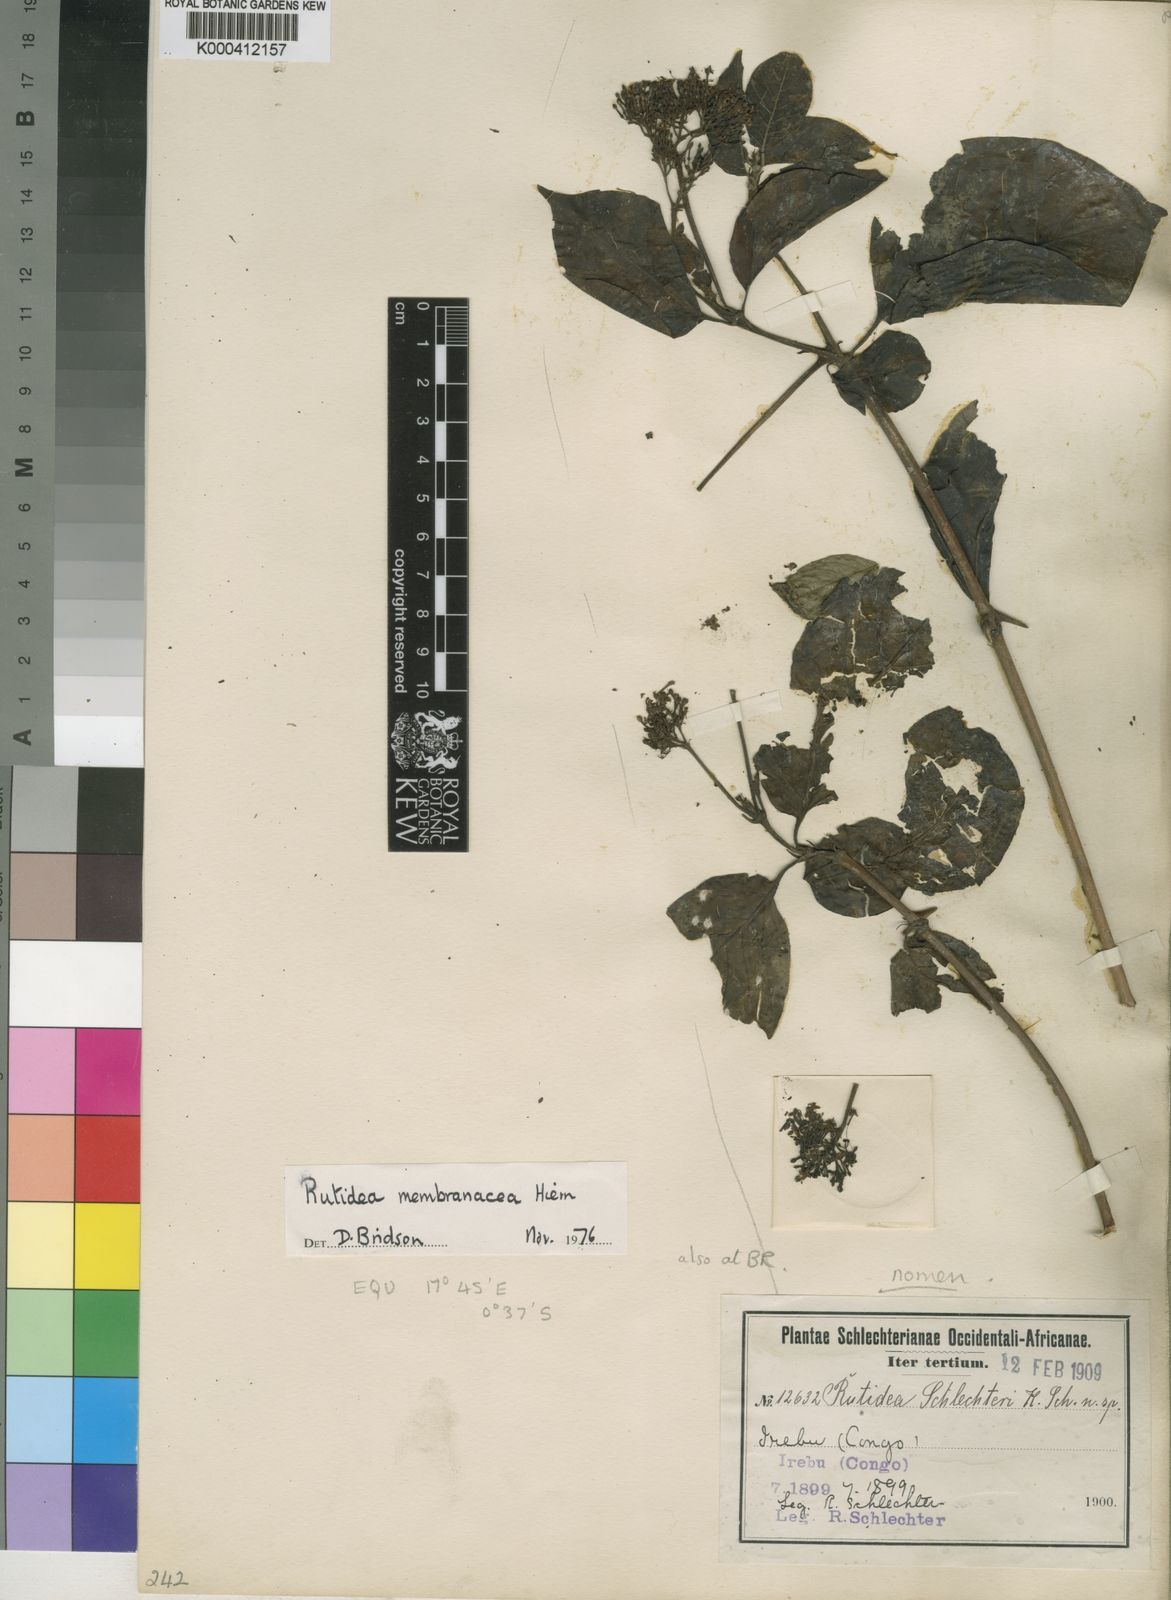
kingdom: Plantae
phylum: Tracheophyta
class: Magnoliopsida
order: Gentianales
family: Rubiaceae
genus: Rutidea
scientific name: Rutidea membranacea
